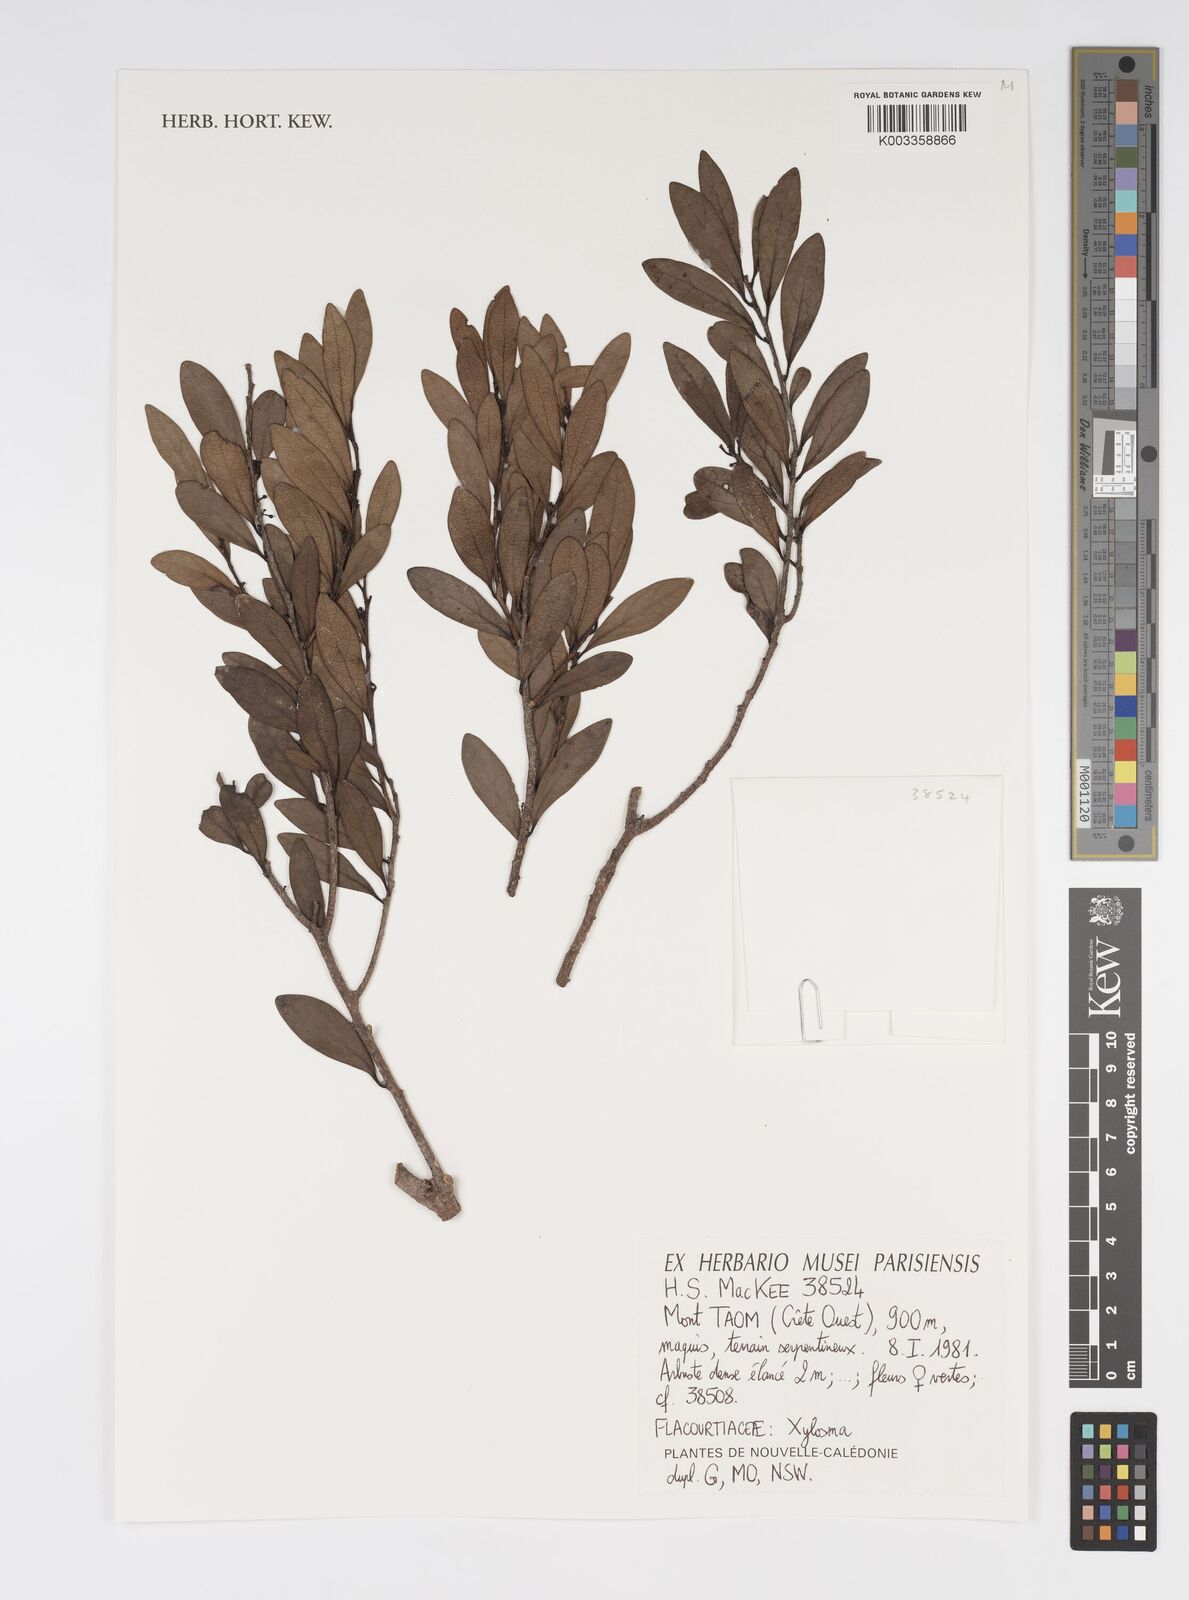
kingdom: Plantae
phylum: Tracheophyta
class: Magnoliopsida
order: Malpighiales
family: Salicaceae
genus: Xylosma
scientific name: Xylosma
